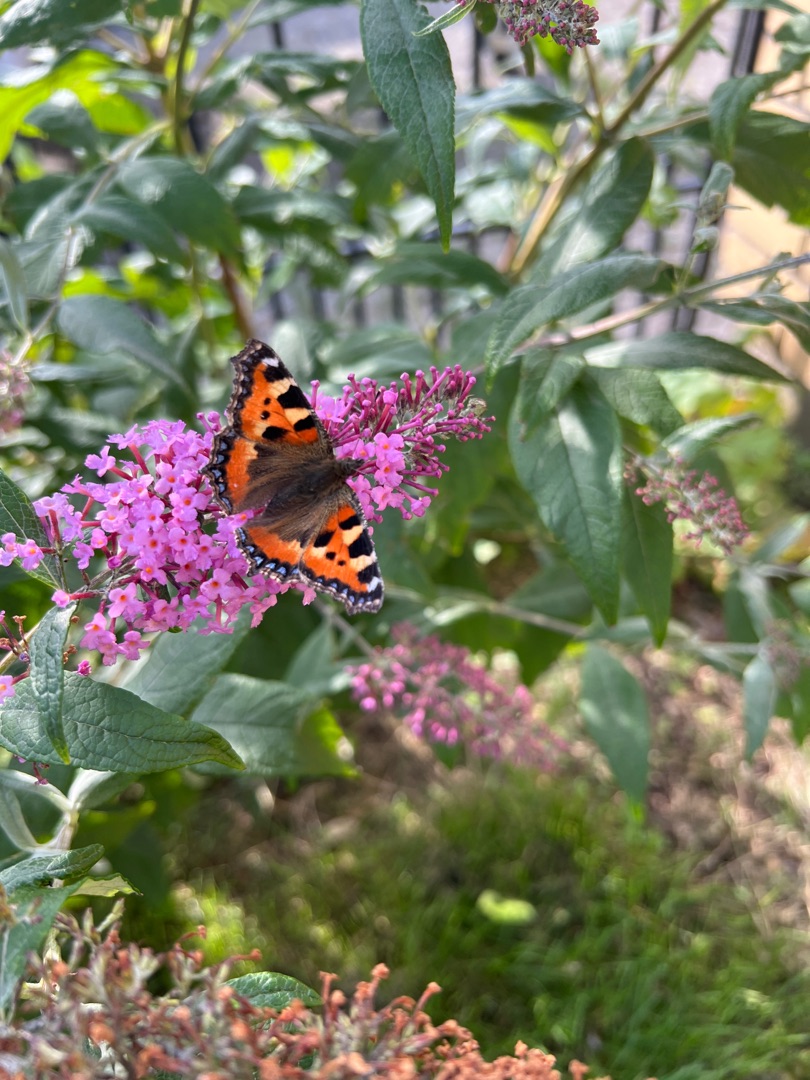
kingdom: Animalia
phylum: Arthropoda
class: Insecta
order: Lepidoptera
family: Nymphalidae
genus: Aglais
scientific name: Aglais urticae
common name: Nældens takvinge
